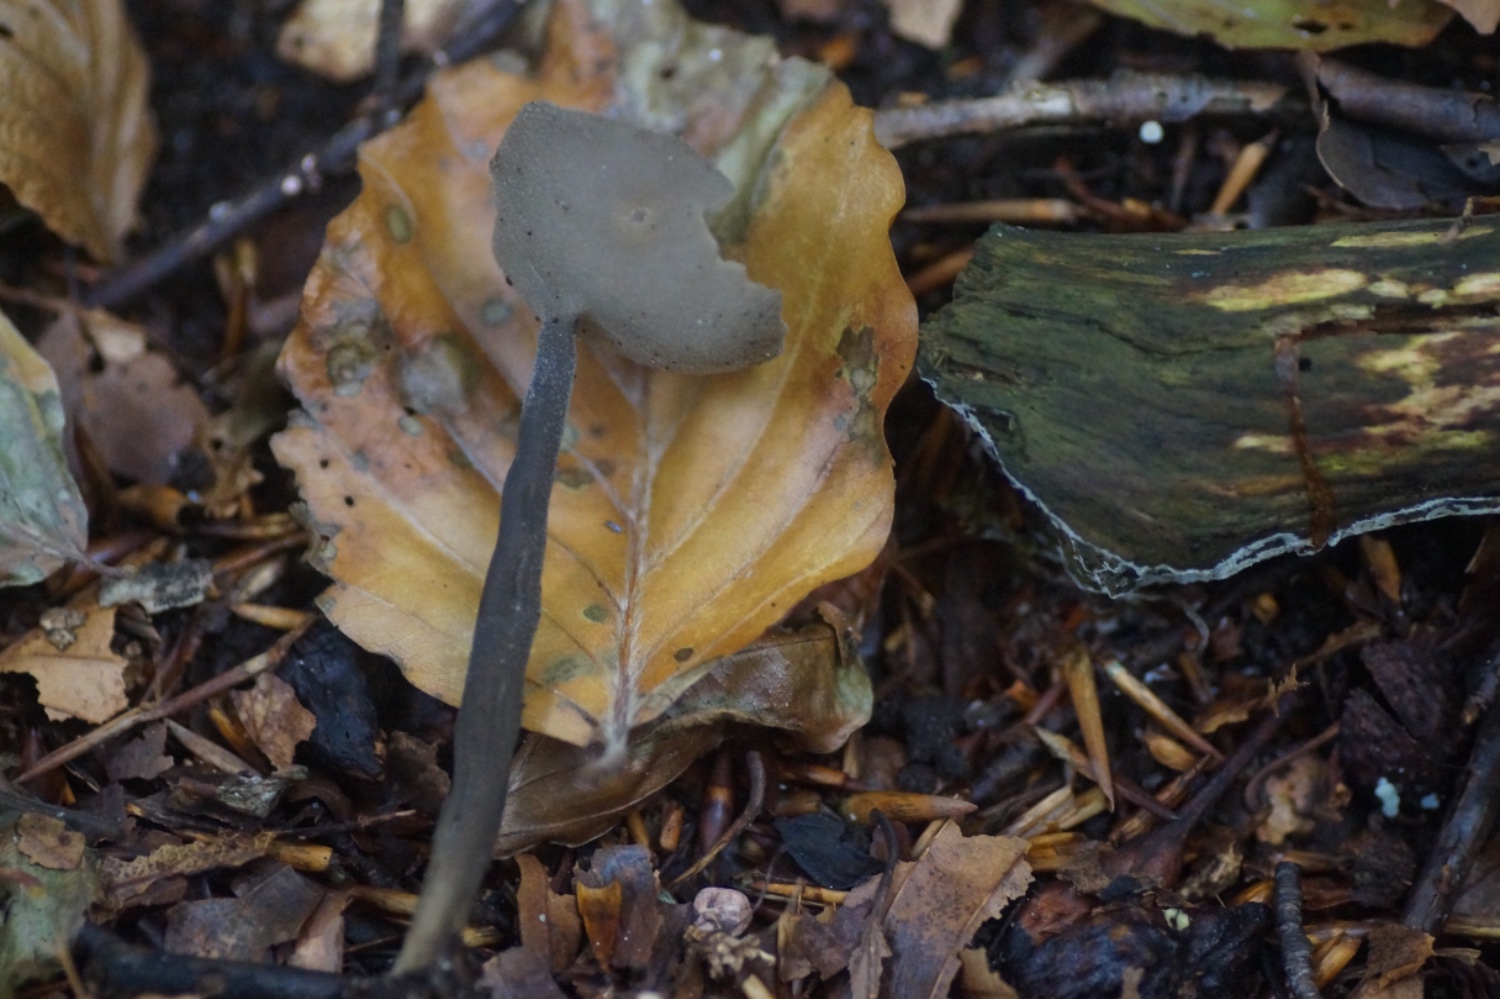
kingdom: Fungi
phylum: Ascomycota
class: Pezizomycetes
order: Pezizales
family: Helvellaceae
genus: Helvella
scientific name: Helvella macropus
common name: højstokket foldhat
